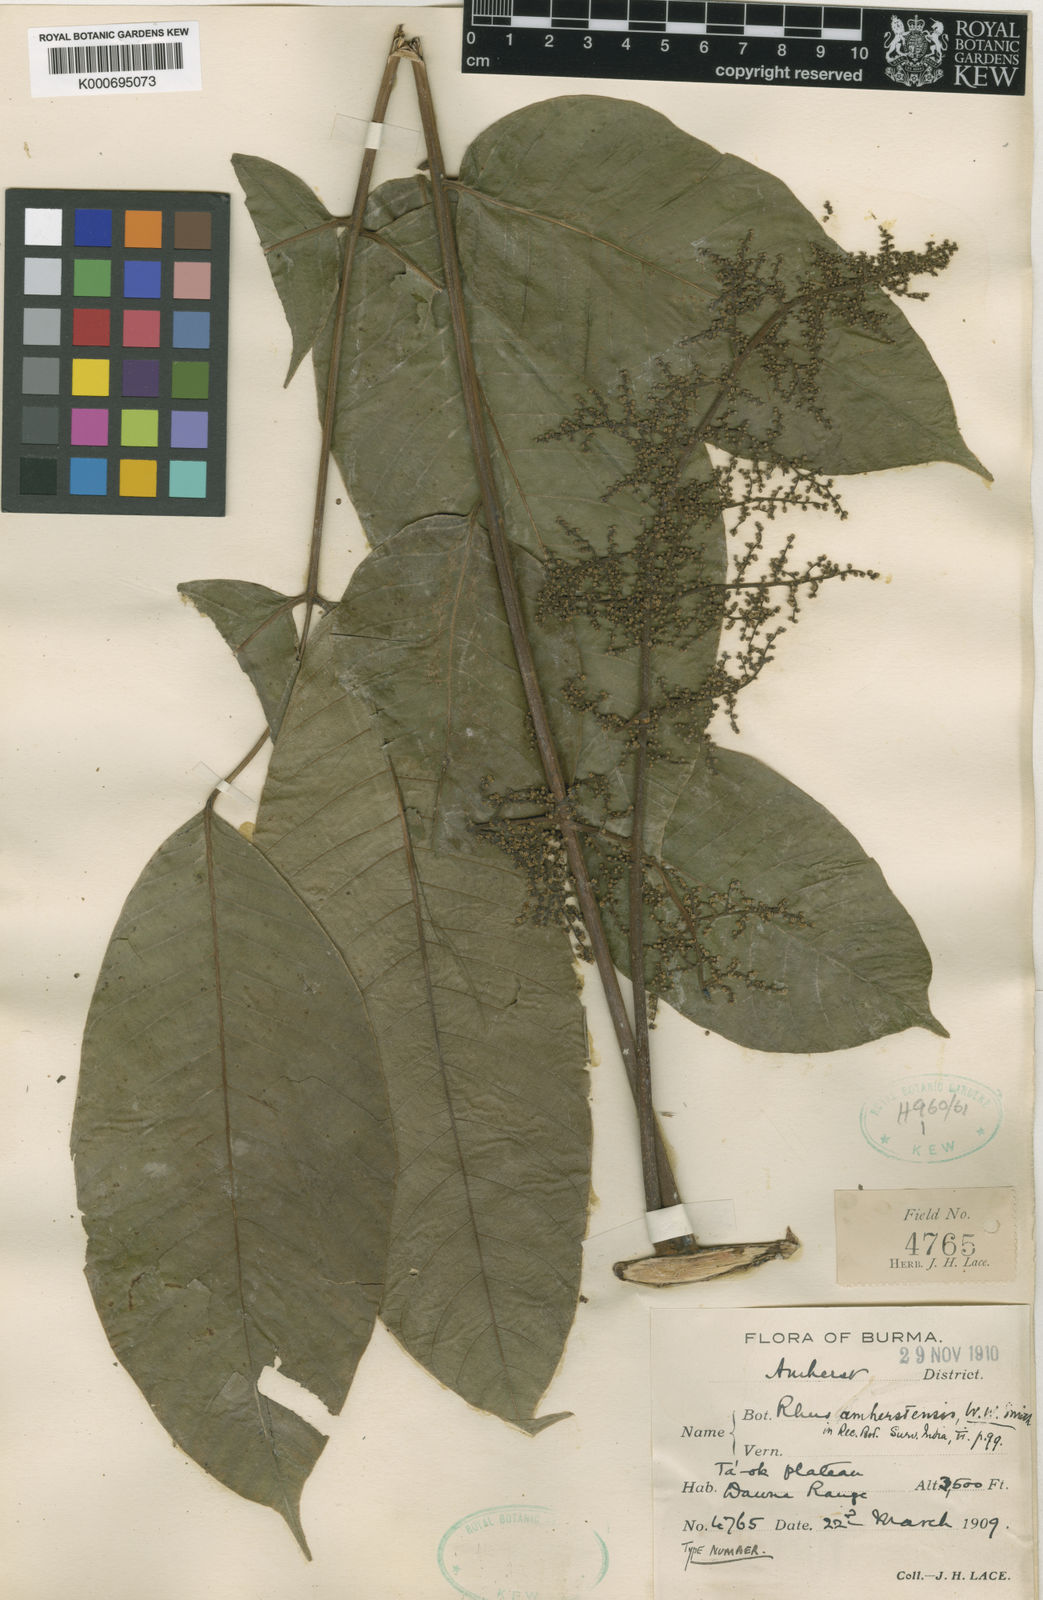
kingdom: Plantae
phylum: Tracheophyta
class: Magnoliopsida
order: Sapindales
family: Anacardiaceae
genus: Rhus
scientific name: Rhus amherstensis
